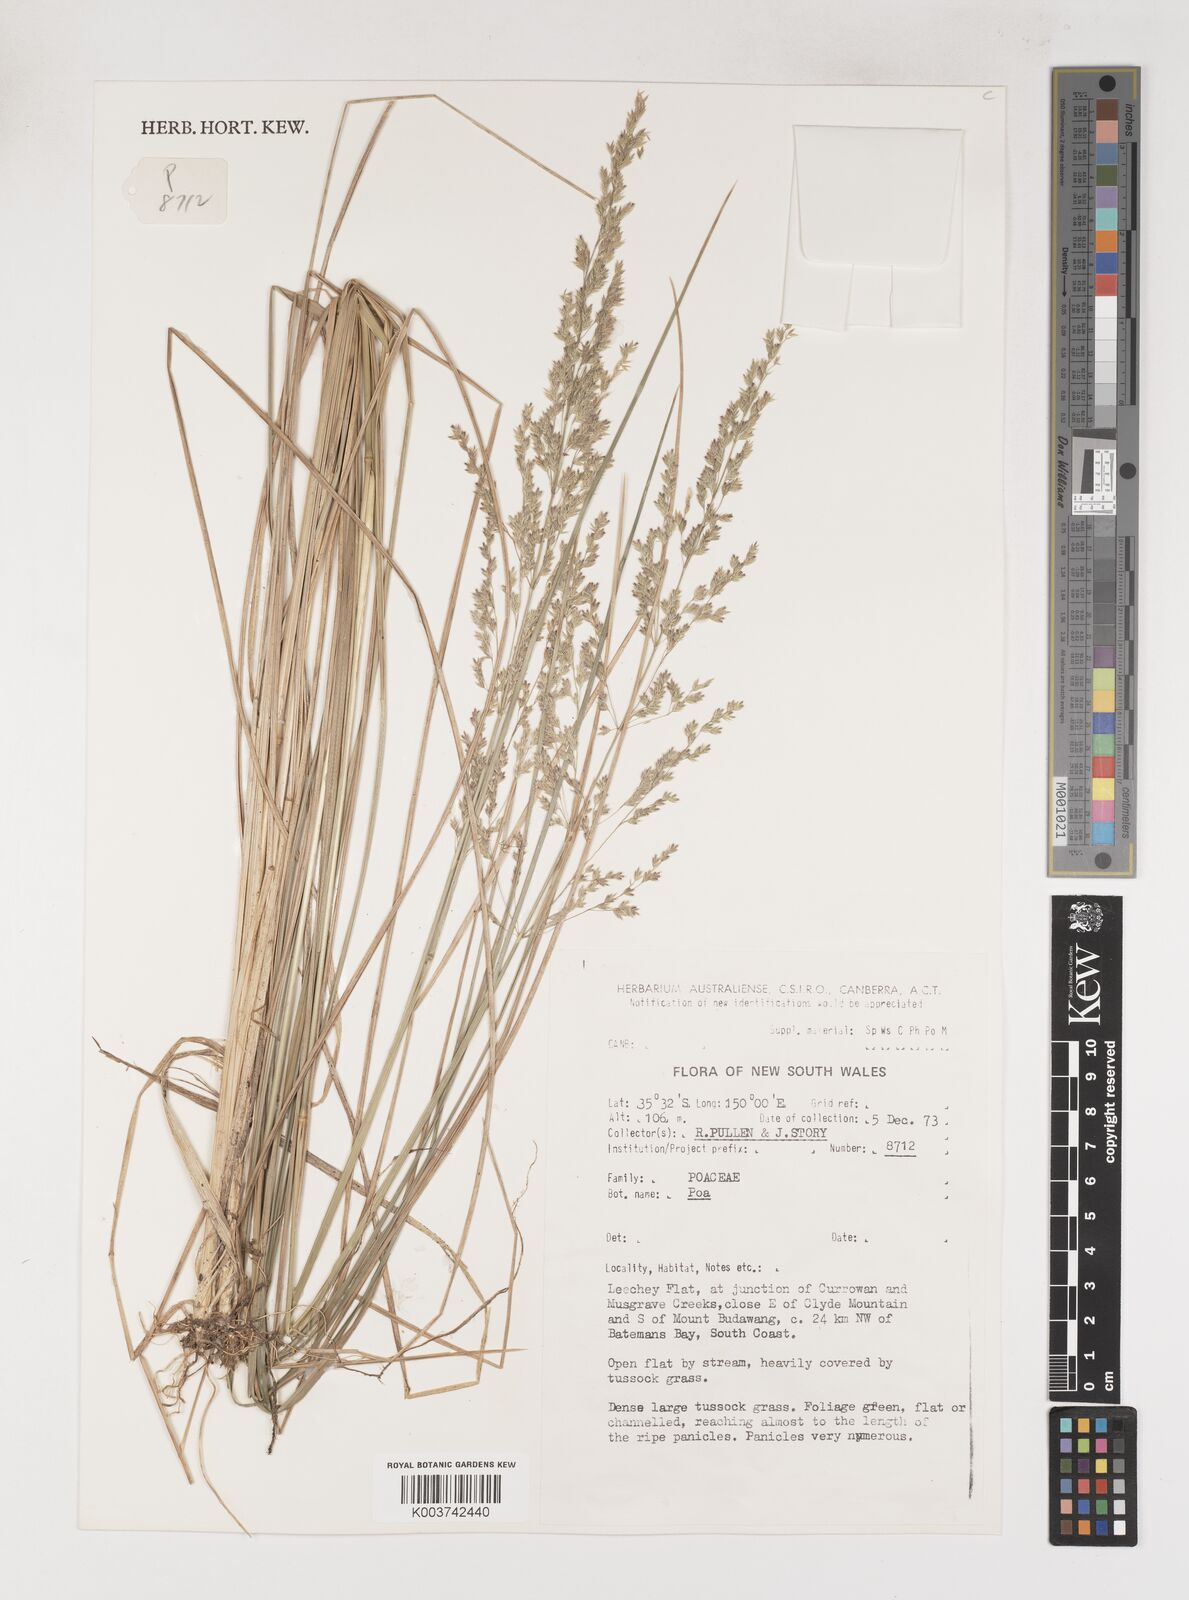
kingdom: Plantae
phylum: Tracheophyta
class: Liliopsida
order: Poales
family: Poaceae
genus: Poa
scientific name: Poa
